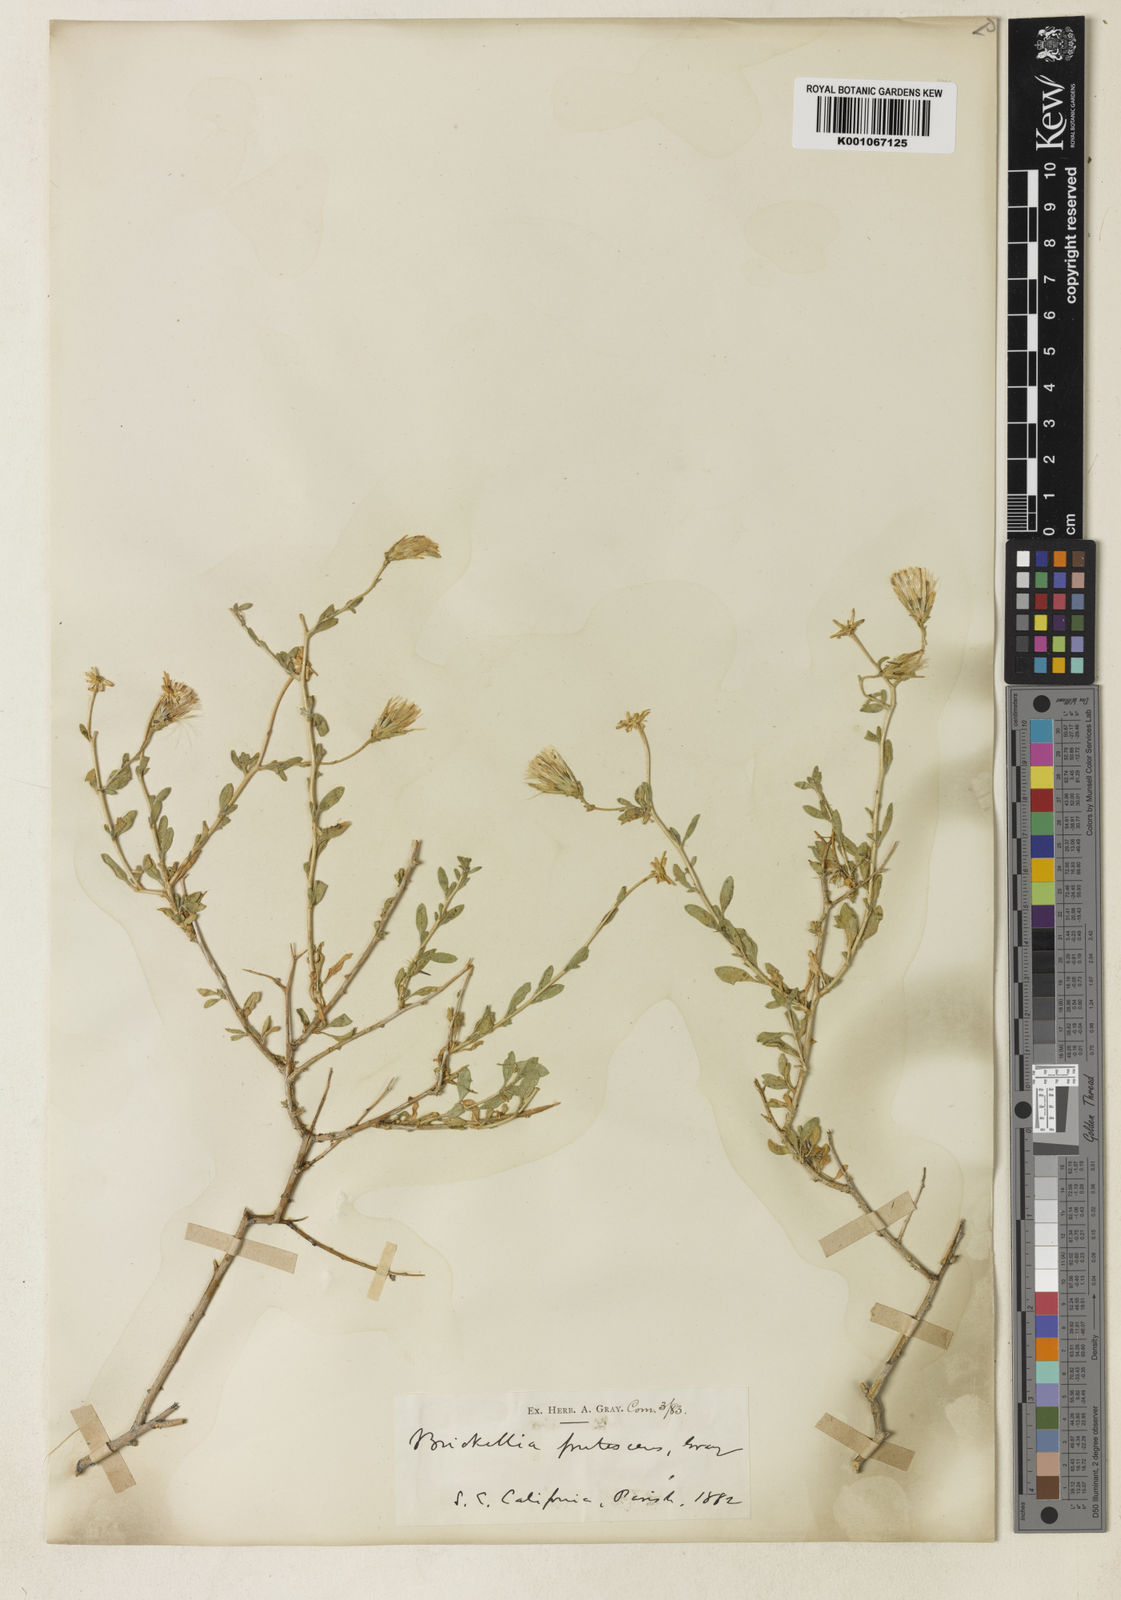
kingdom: Plantae
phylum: Tracheophyta
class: Magnoliopsida
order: Asterales
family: Asteraceae
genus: Brickellia
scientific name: Brickellia frutescens
